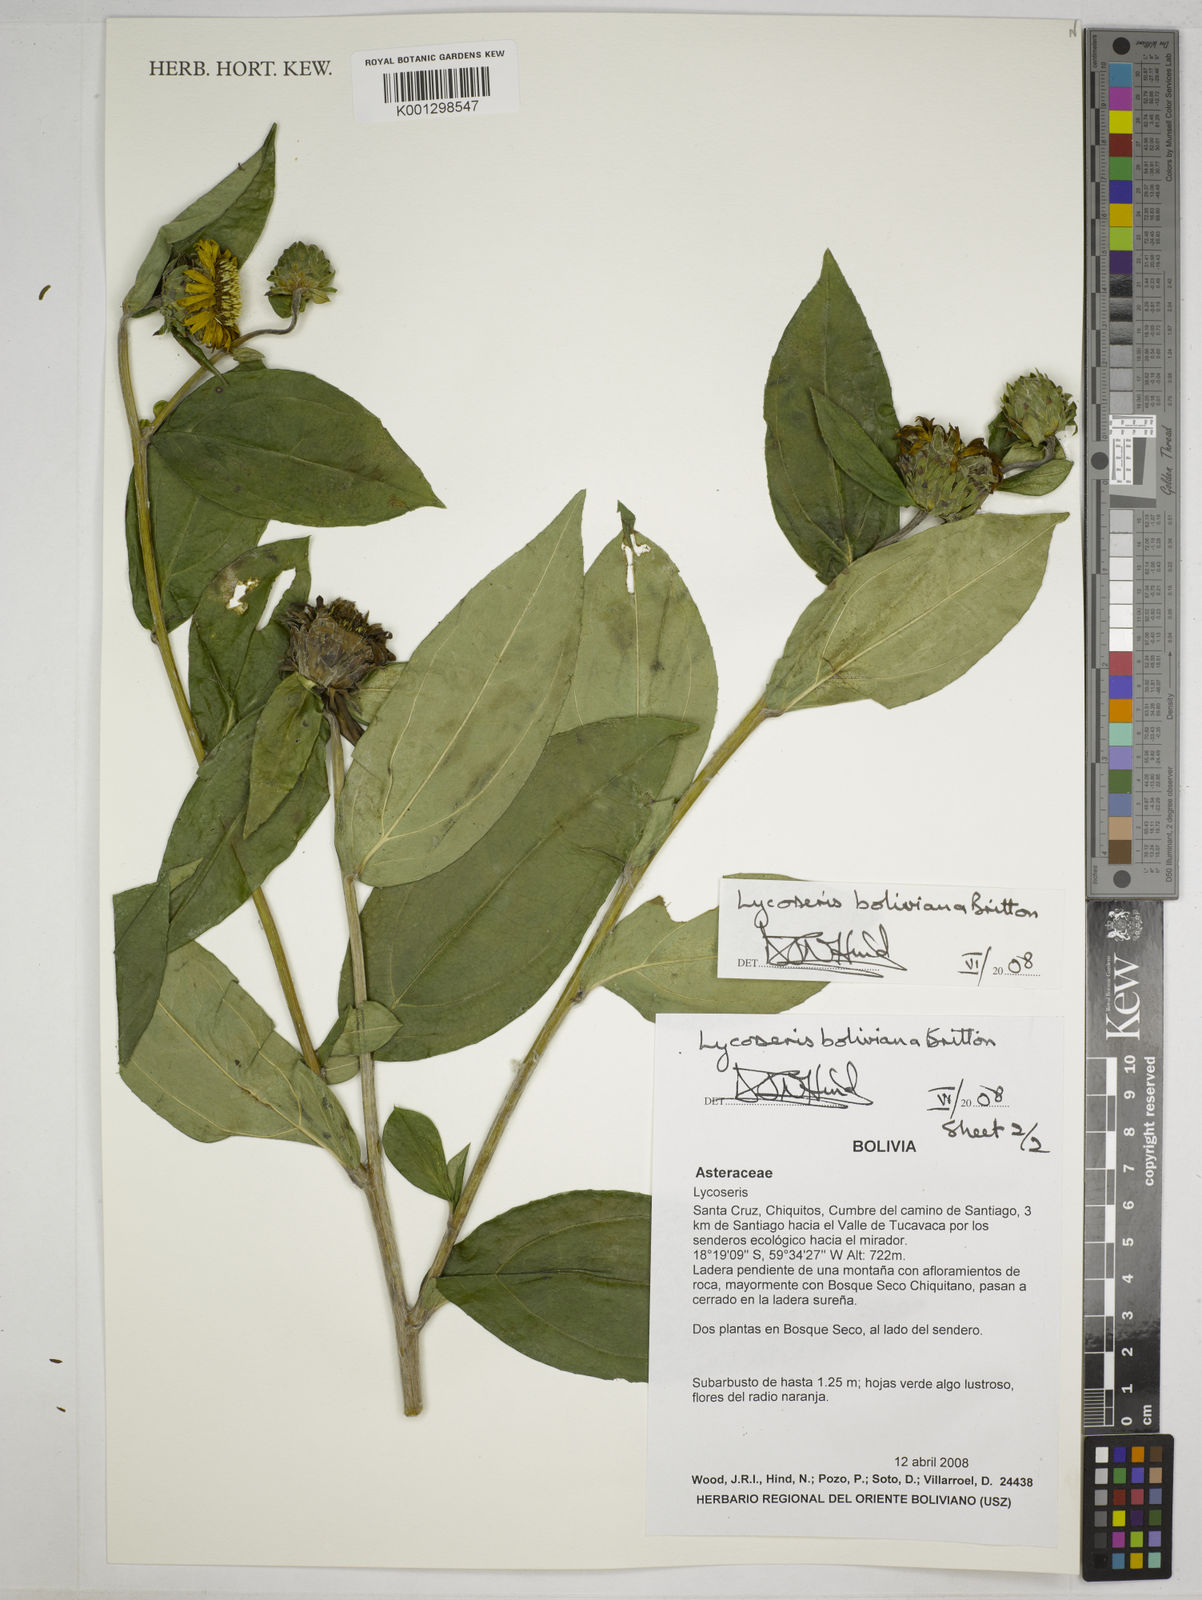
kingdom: Plantae
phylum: Tracheophyta
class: Magnoliopsida
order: Asterales
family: Asteraceae
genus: Lycoseris
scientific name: Lycoseris boliviana
